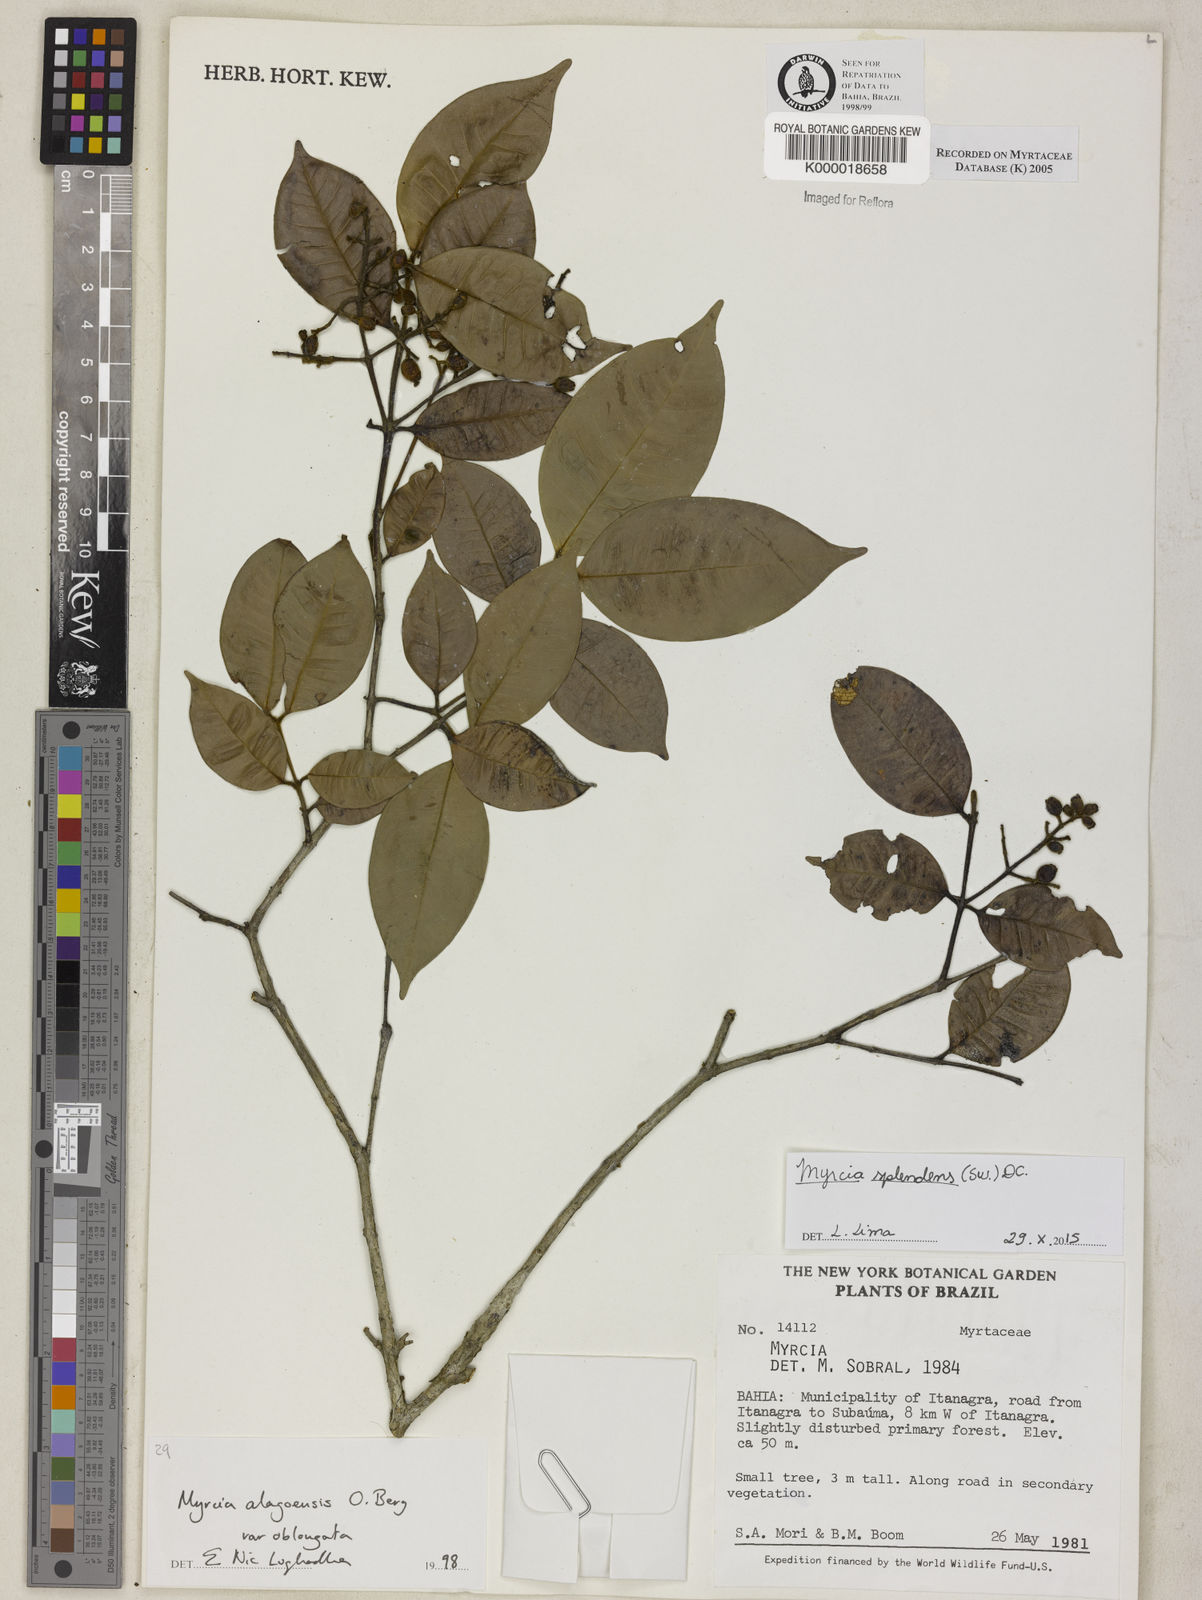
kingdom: Plantae
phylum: Tracheophyta
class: Magnoliopsida
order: Myrtales
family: Myrtaceae
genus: Myrcia
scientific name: Myrcia splendens
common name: Surinam cherry
